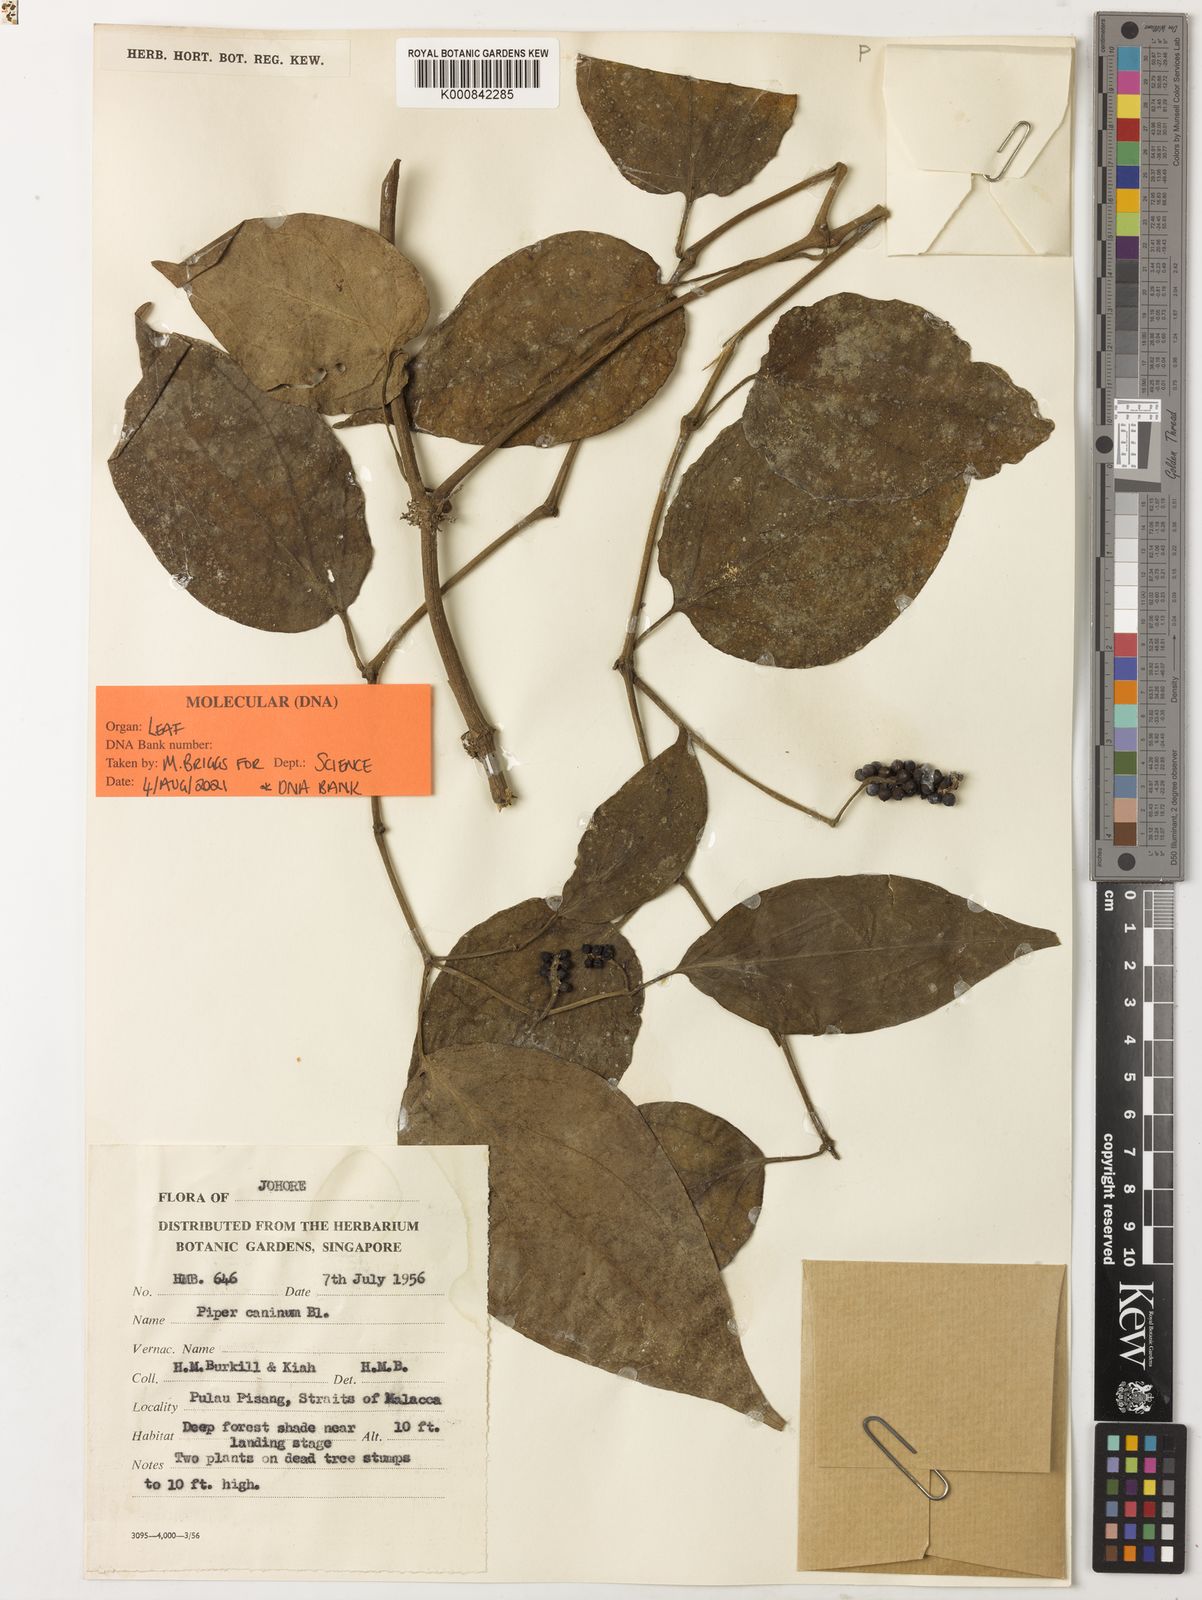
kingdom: Plantae
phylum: Tracheophyta
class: Magnoliopsida
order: Piperales
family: Piperaceae
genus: Piper
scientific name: Piper lanatum
